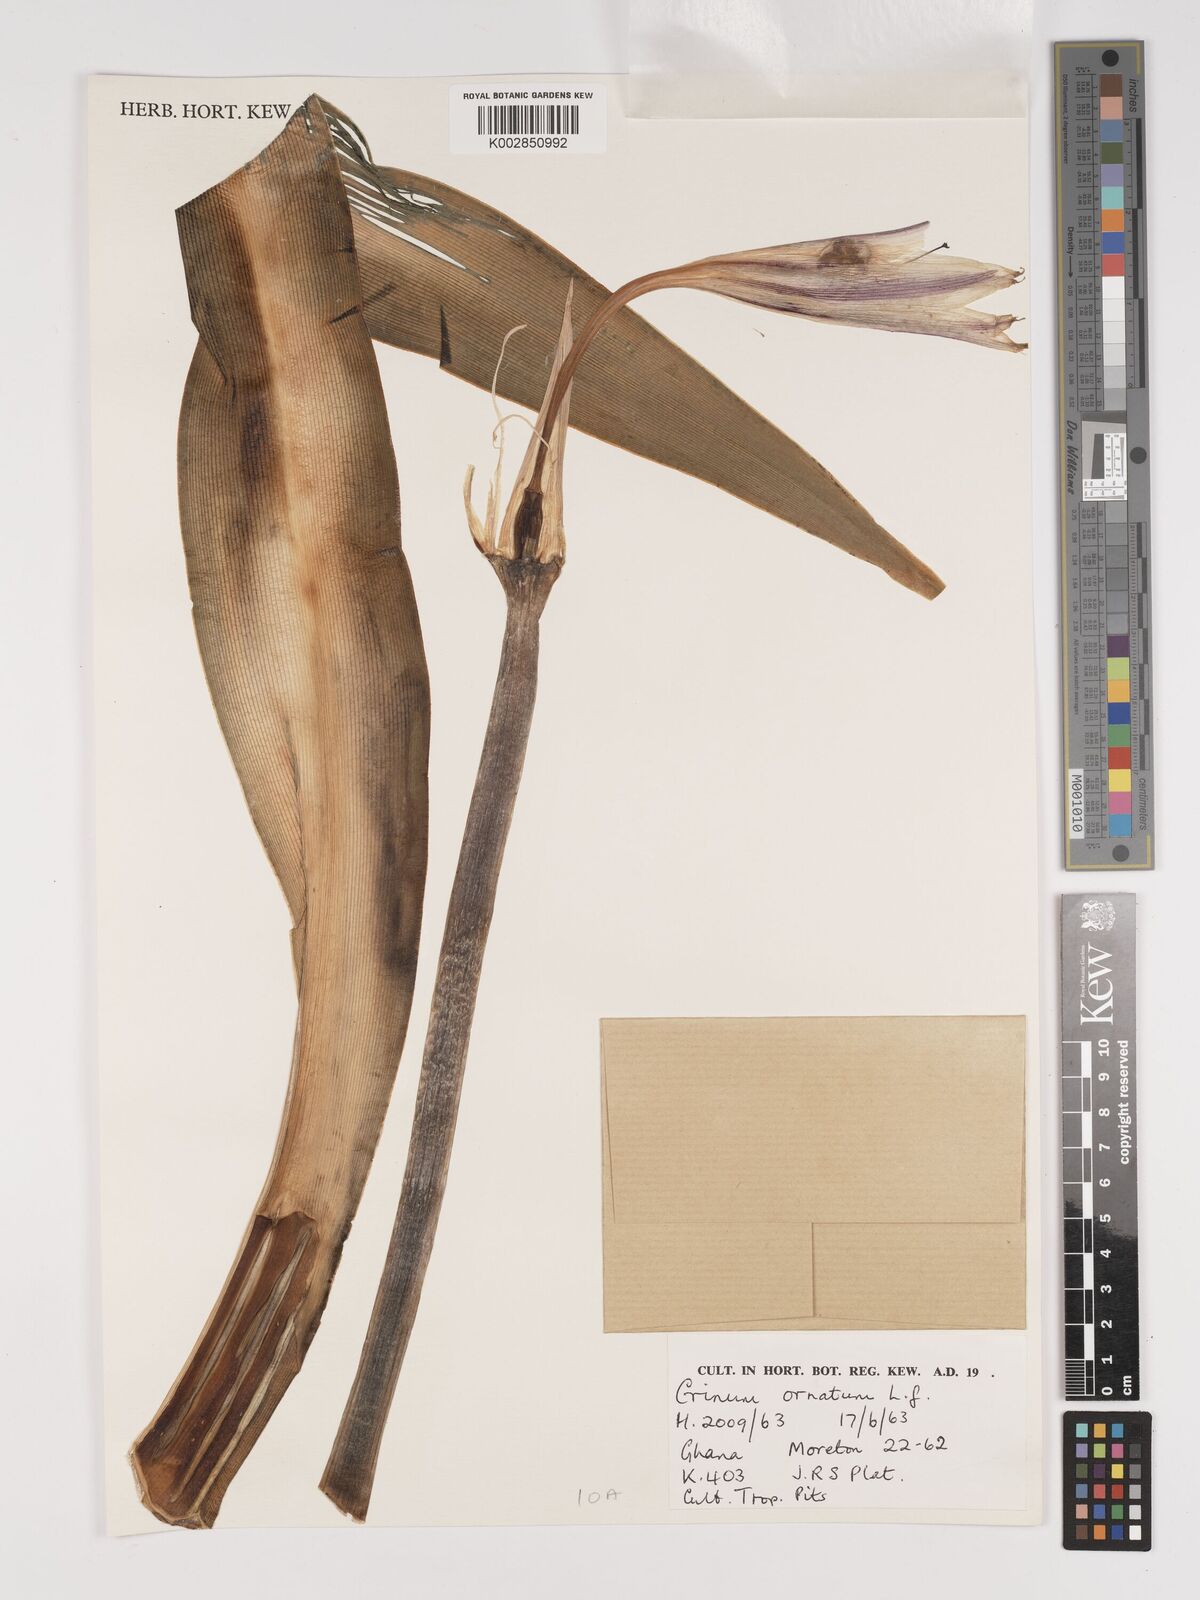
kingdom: Plantae
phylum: Tracheophyta
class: Liliopsida
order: Asparagales
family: Amaryllidaceae
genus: Crinum
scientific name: Crinum zeylanicum
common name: Ceylon swamplily
